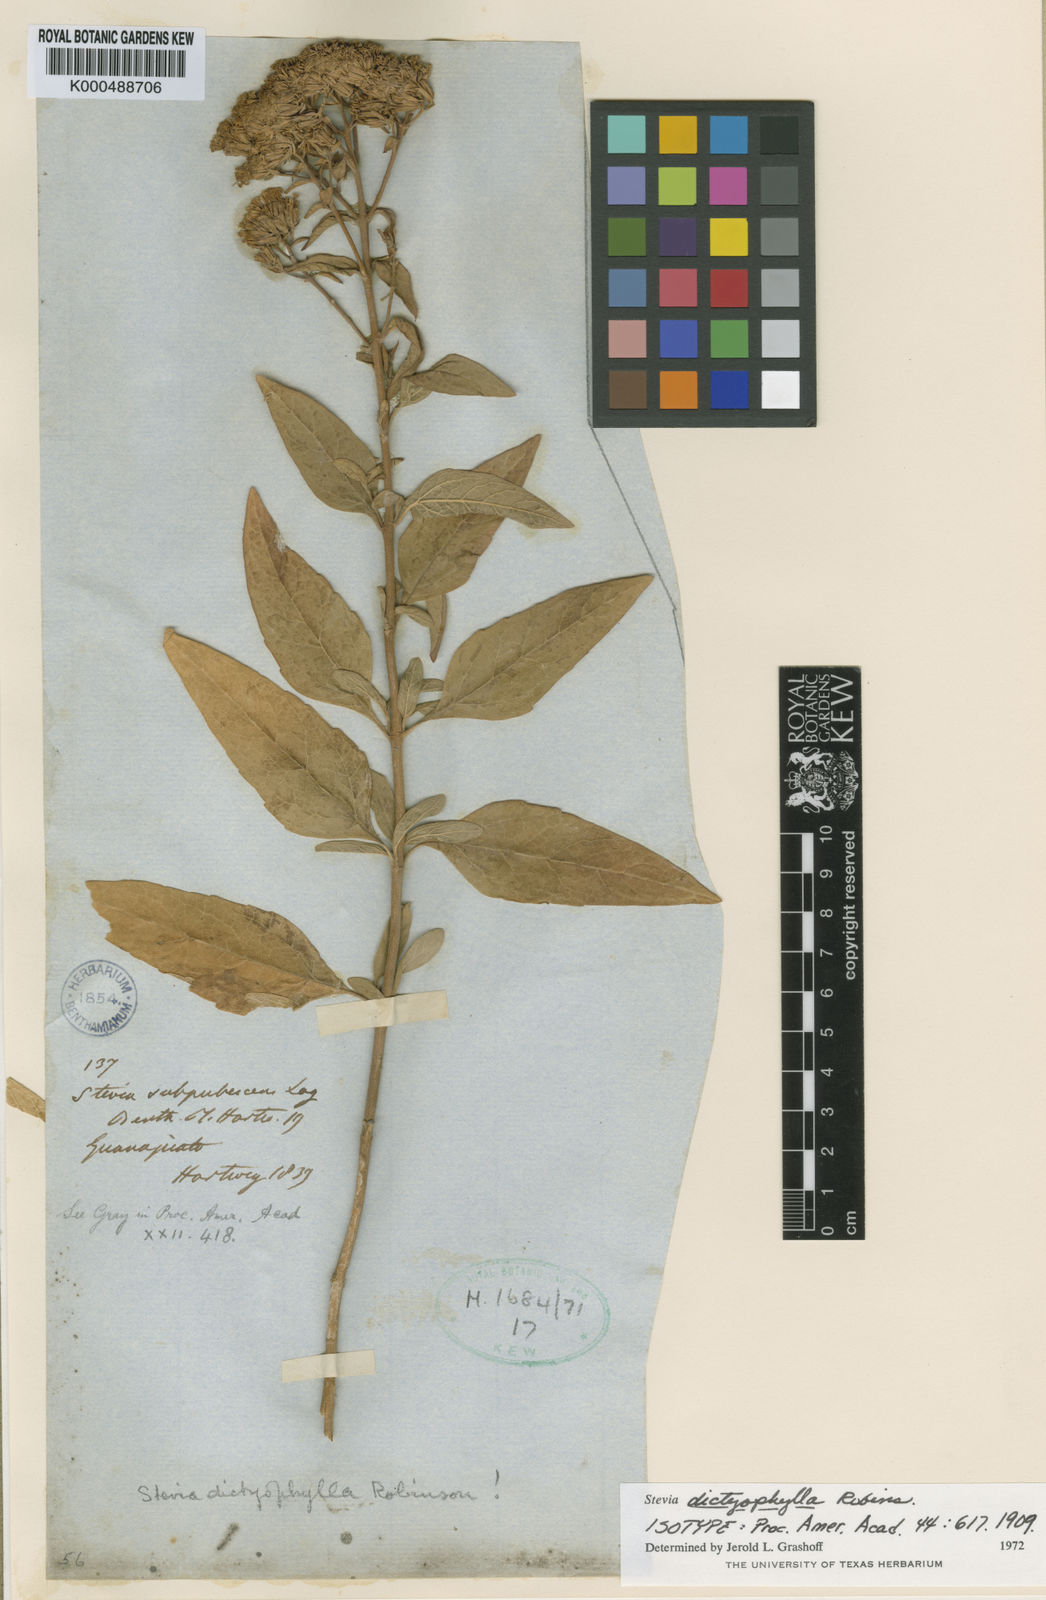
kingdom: Plantae
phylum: Tracheophyta
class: Magnoliopsida
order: Asterales
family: Asteraceae
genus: Stevia
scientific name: Stevia dictyophylla
